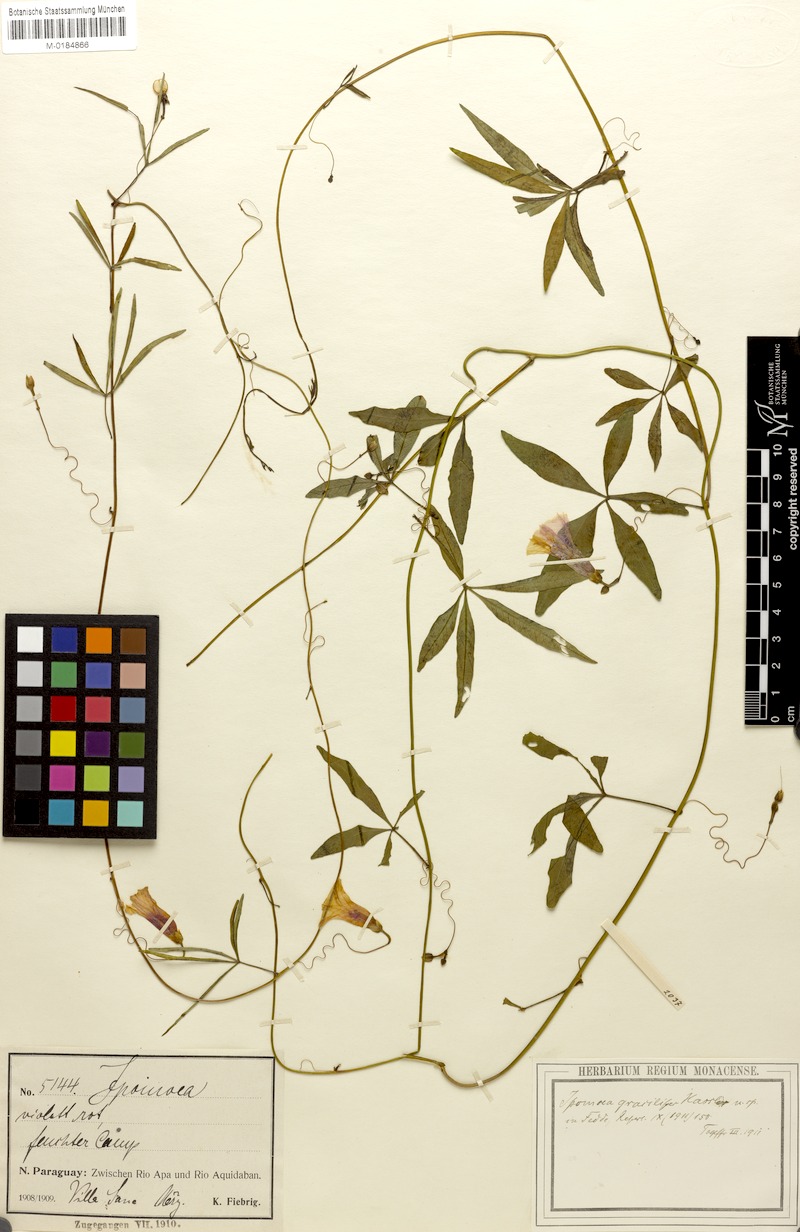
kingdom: Plantae
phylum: Tracheophyta
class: Magnoliopsida
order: Solanales
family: Convolvulaceae
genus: Ipomoea
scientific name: Ipomoea heptaphylla
